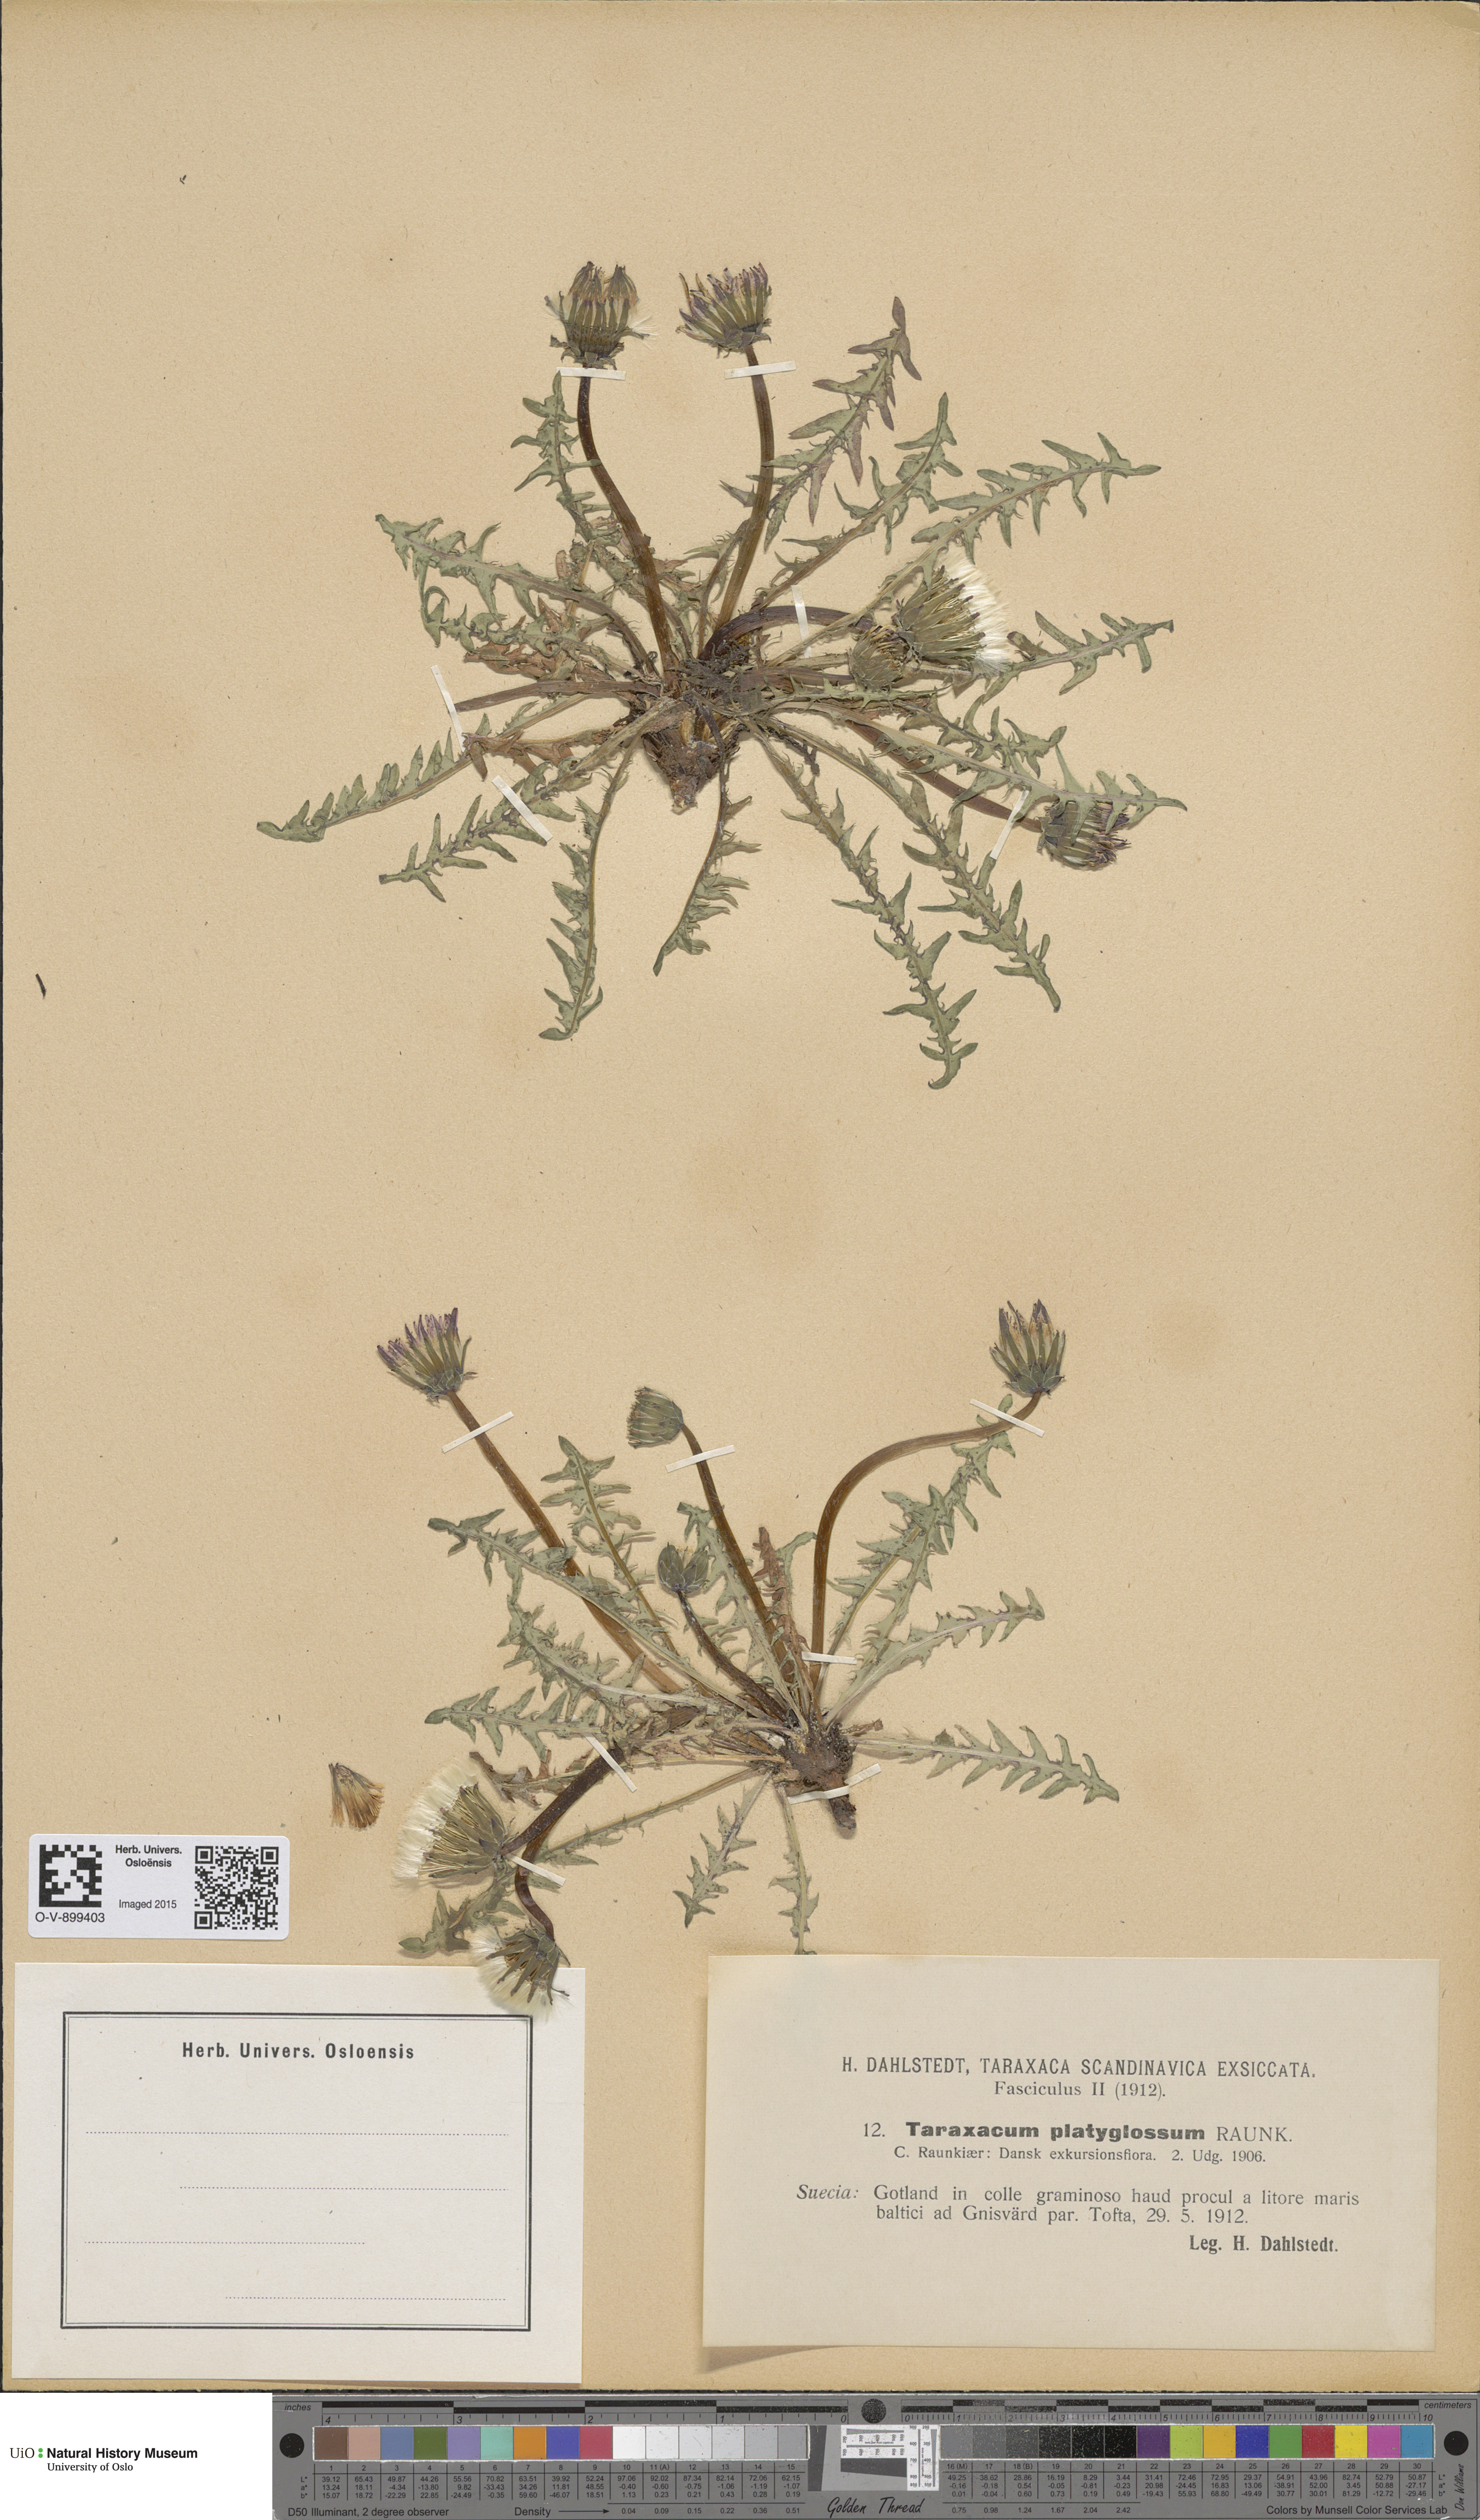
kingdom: Plantae
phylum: Tracheophyta
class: Magnoliopsida
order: Asterales
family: Asteraceae
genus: Taraxacum
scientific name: Taraxacum platyglossum
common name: Tongue-leaved dandelion
